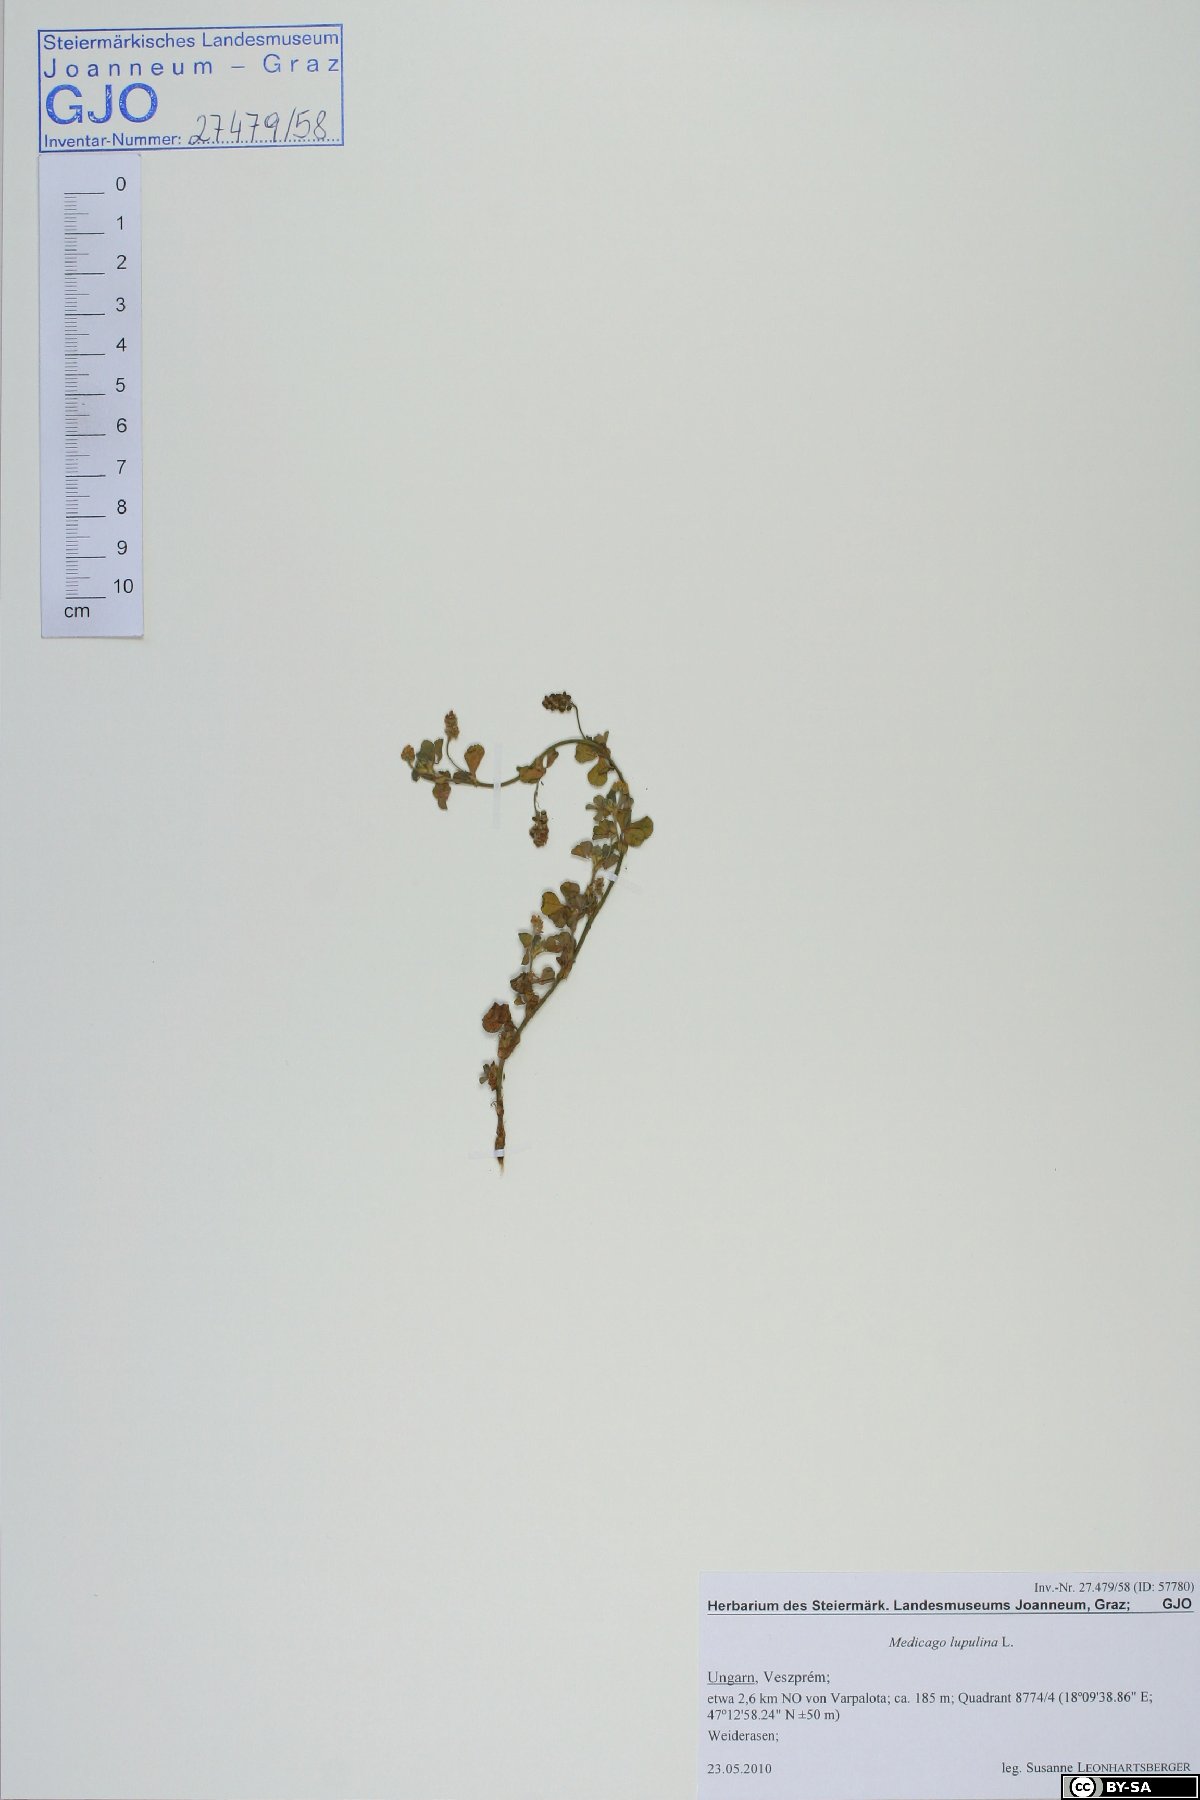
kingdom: Plantae
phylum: Tracheophyta
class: Magnoliopsida
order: Fabales
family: Fabaceae
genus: Medicago
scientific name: Medicago lupulina
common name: Black medick
